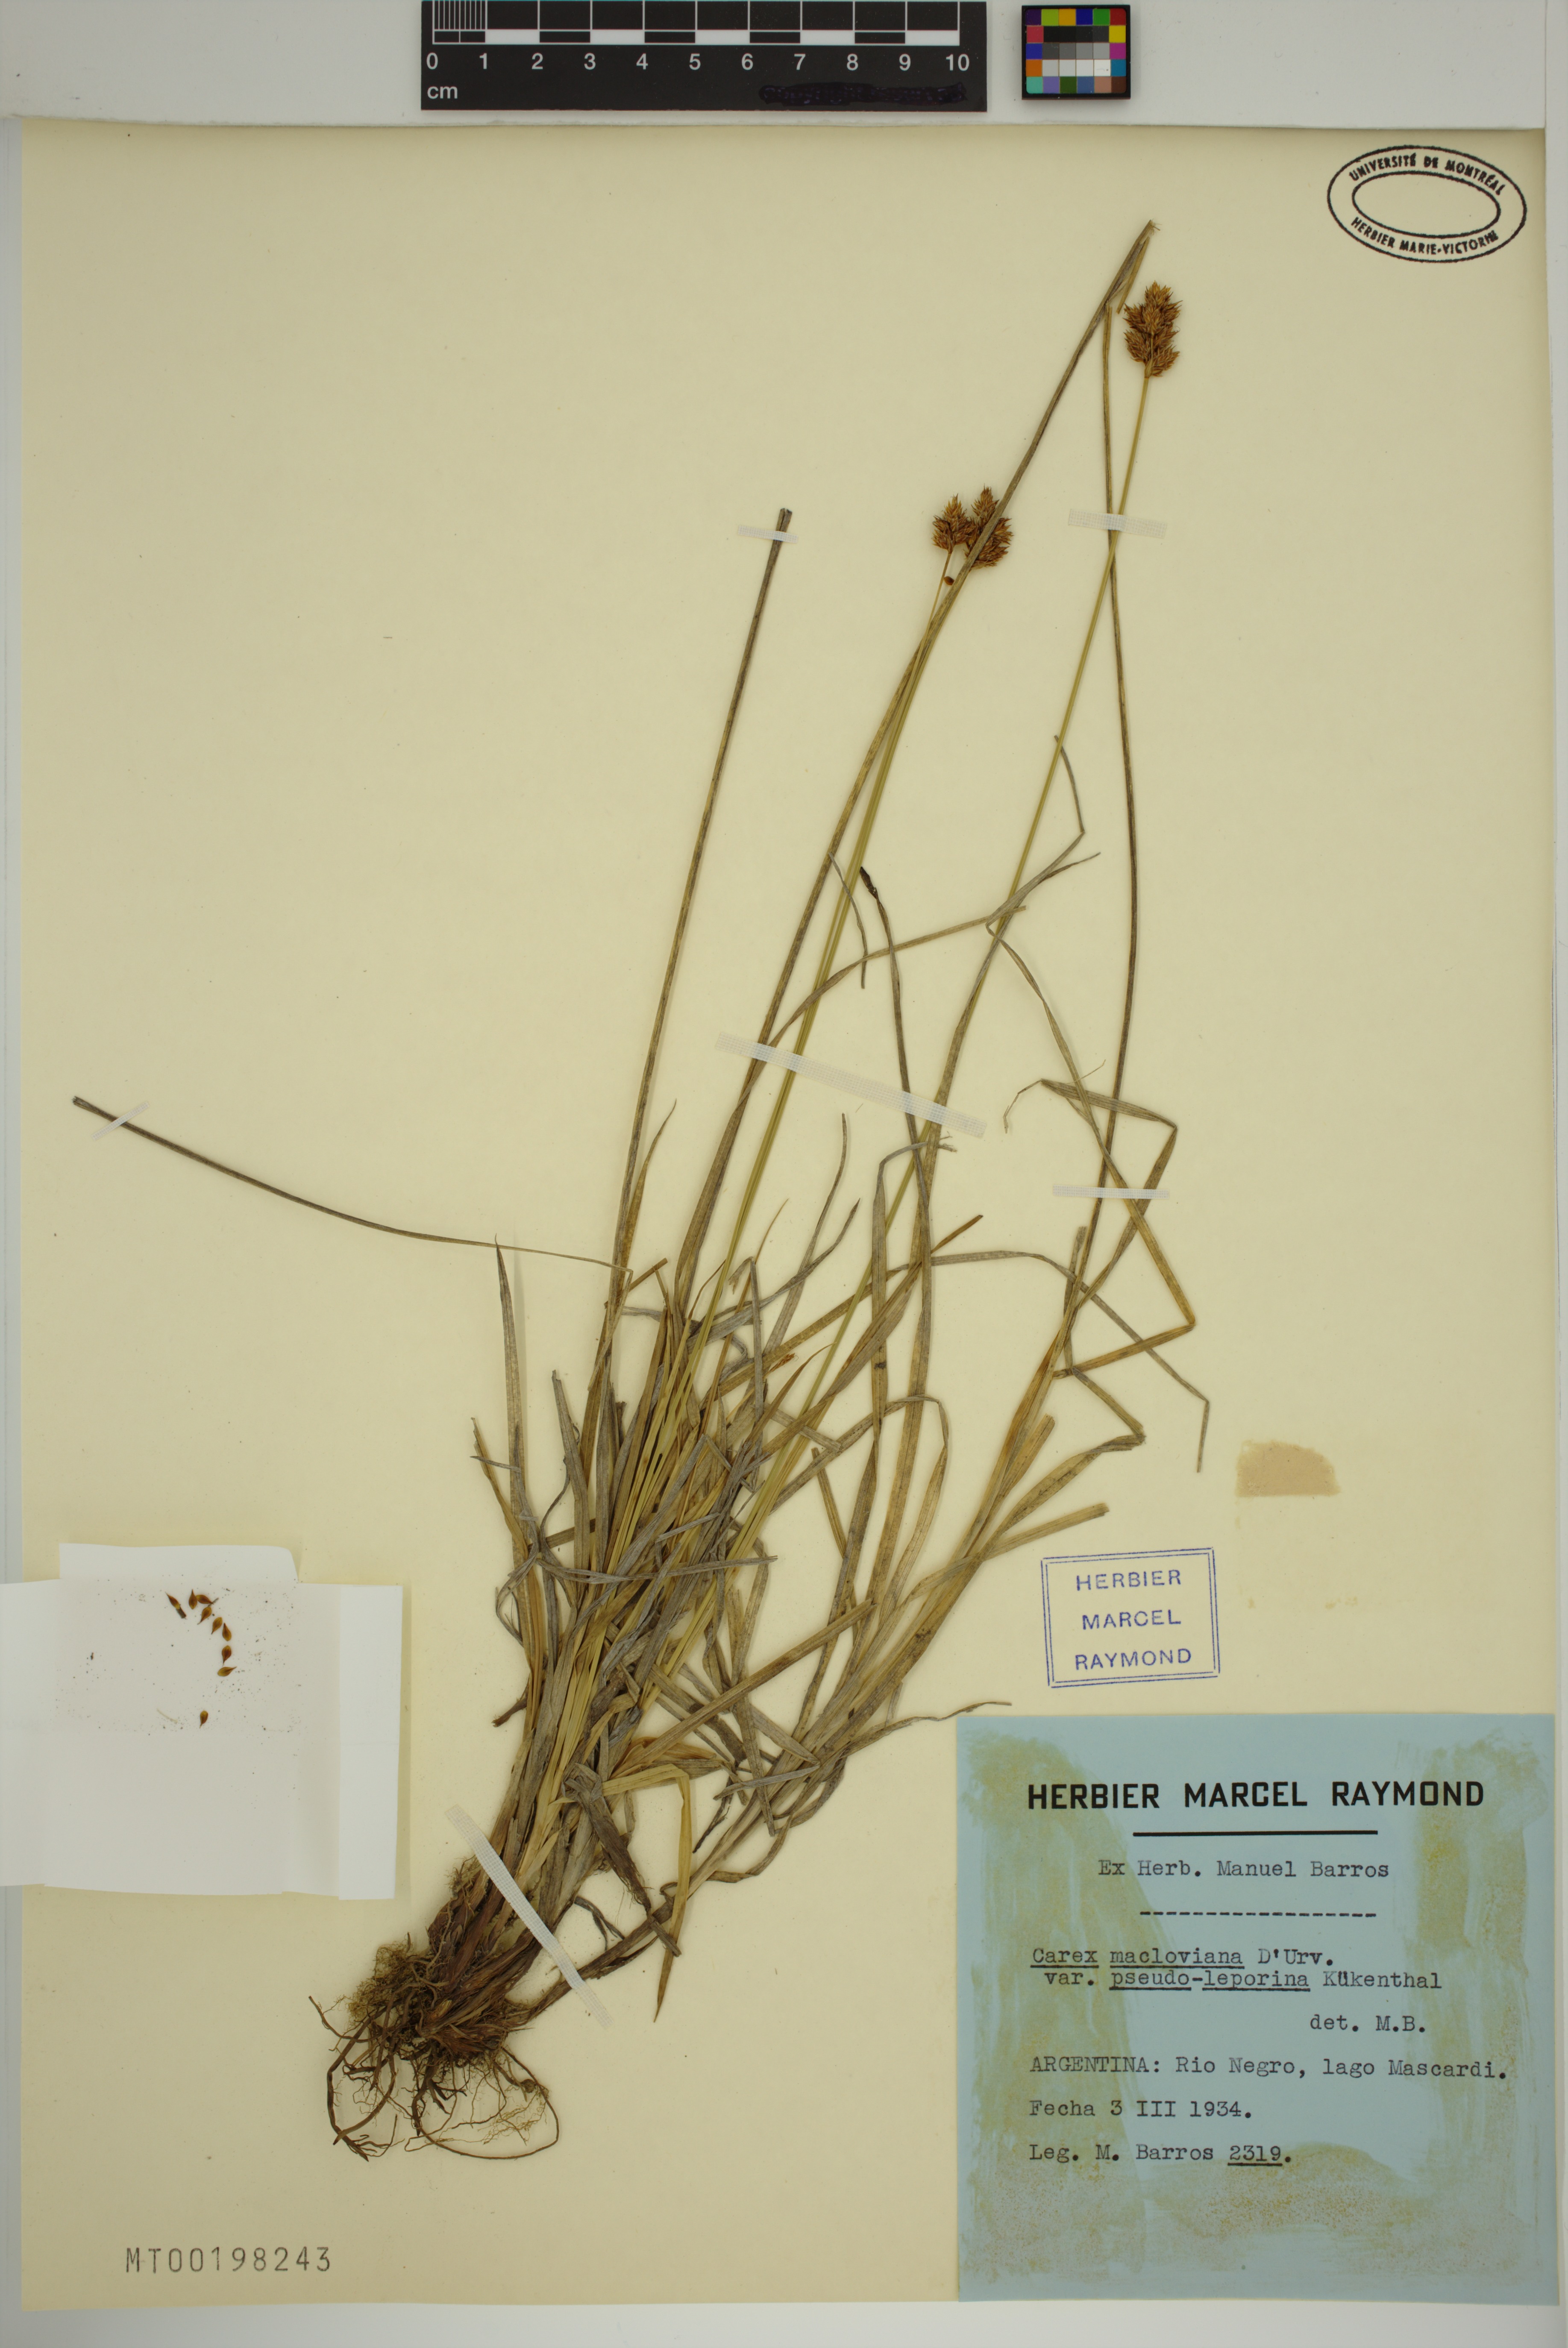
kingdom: Plantae
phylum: Tracheophyta
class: Liliopsida
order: Poales
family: Cyperaceae
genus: Carex
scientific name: Carex macloviana
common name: Falkland island sedge
